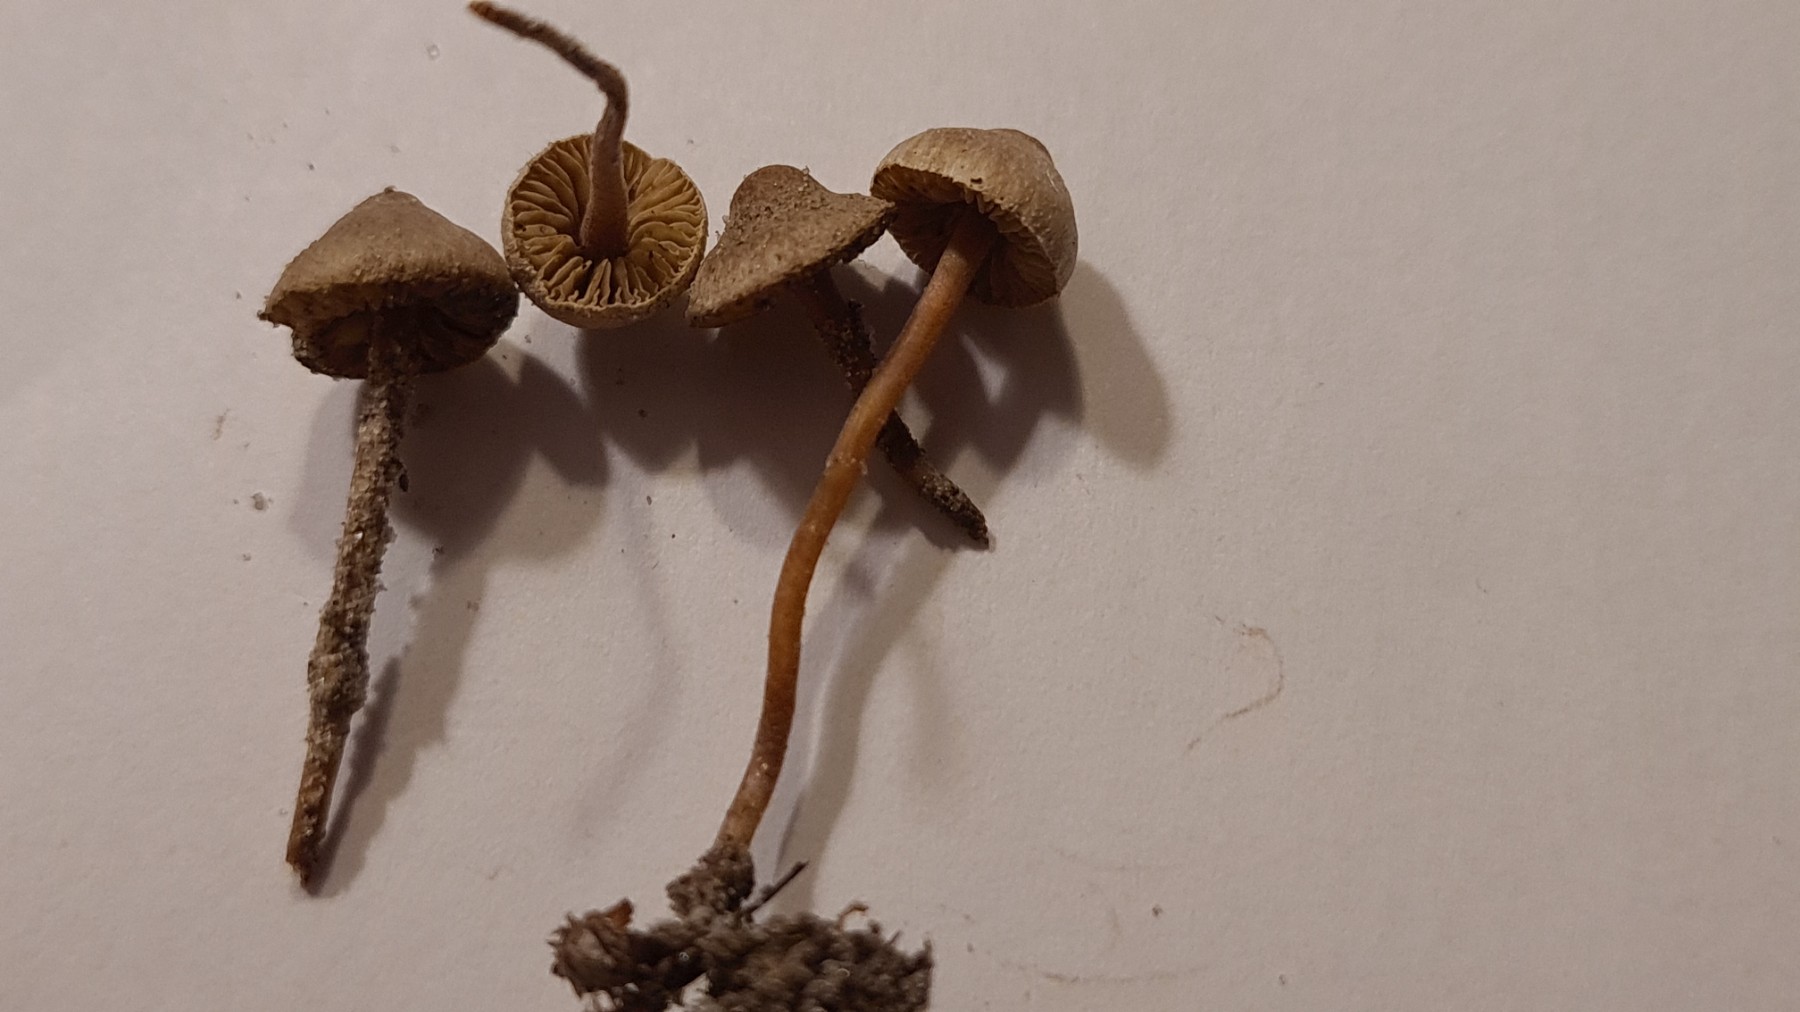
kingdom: Fungi
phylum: Basidiomycota
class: Agaricomycetes
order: Agaricales
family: Inocybaceae
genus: Inocybe
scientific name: Inocybe petiginosa
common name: liden trævlhat
